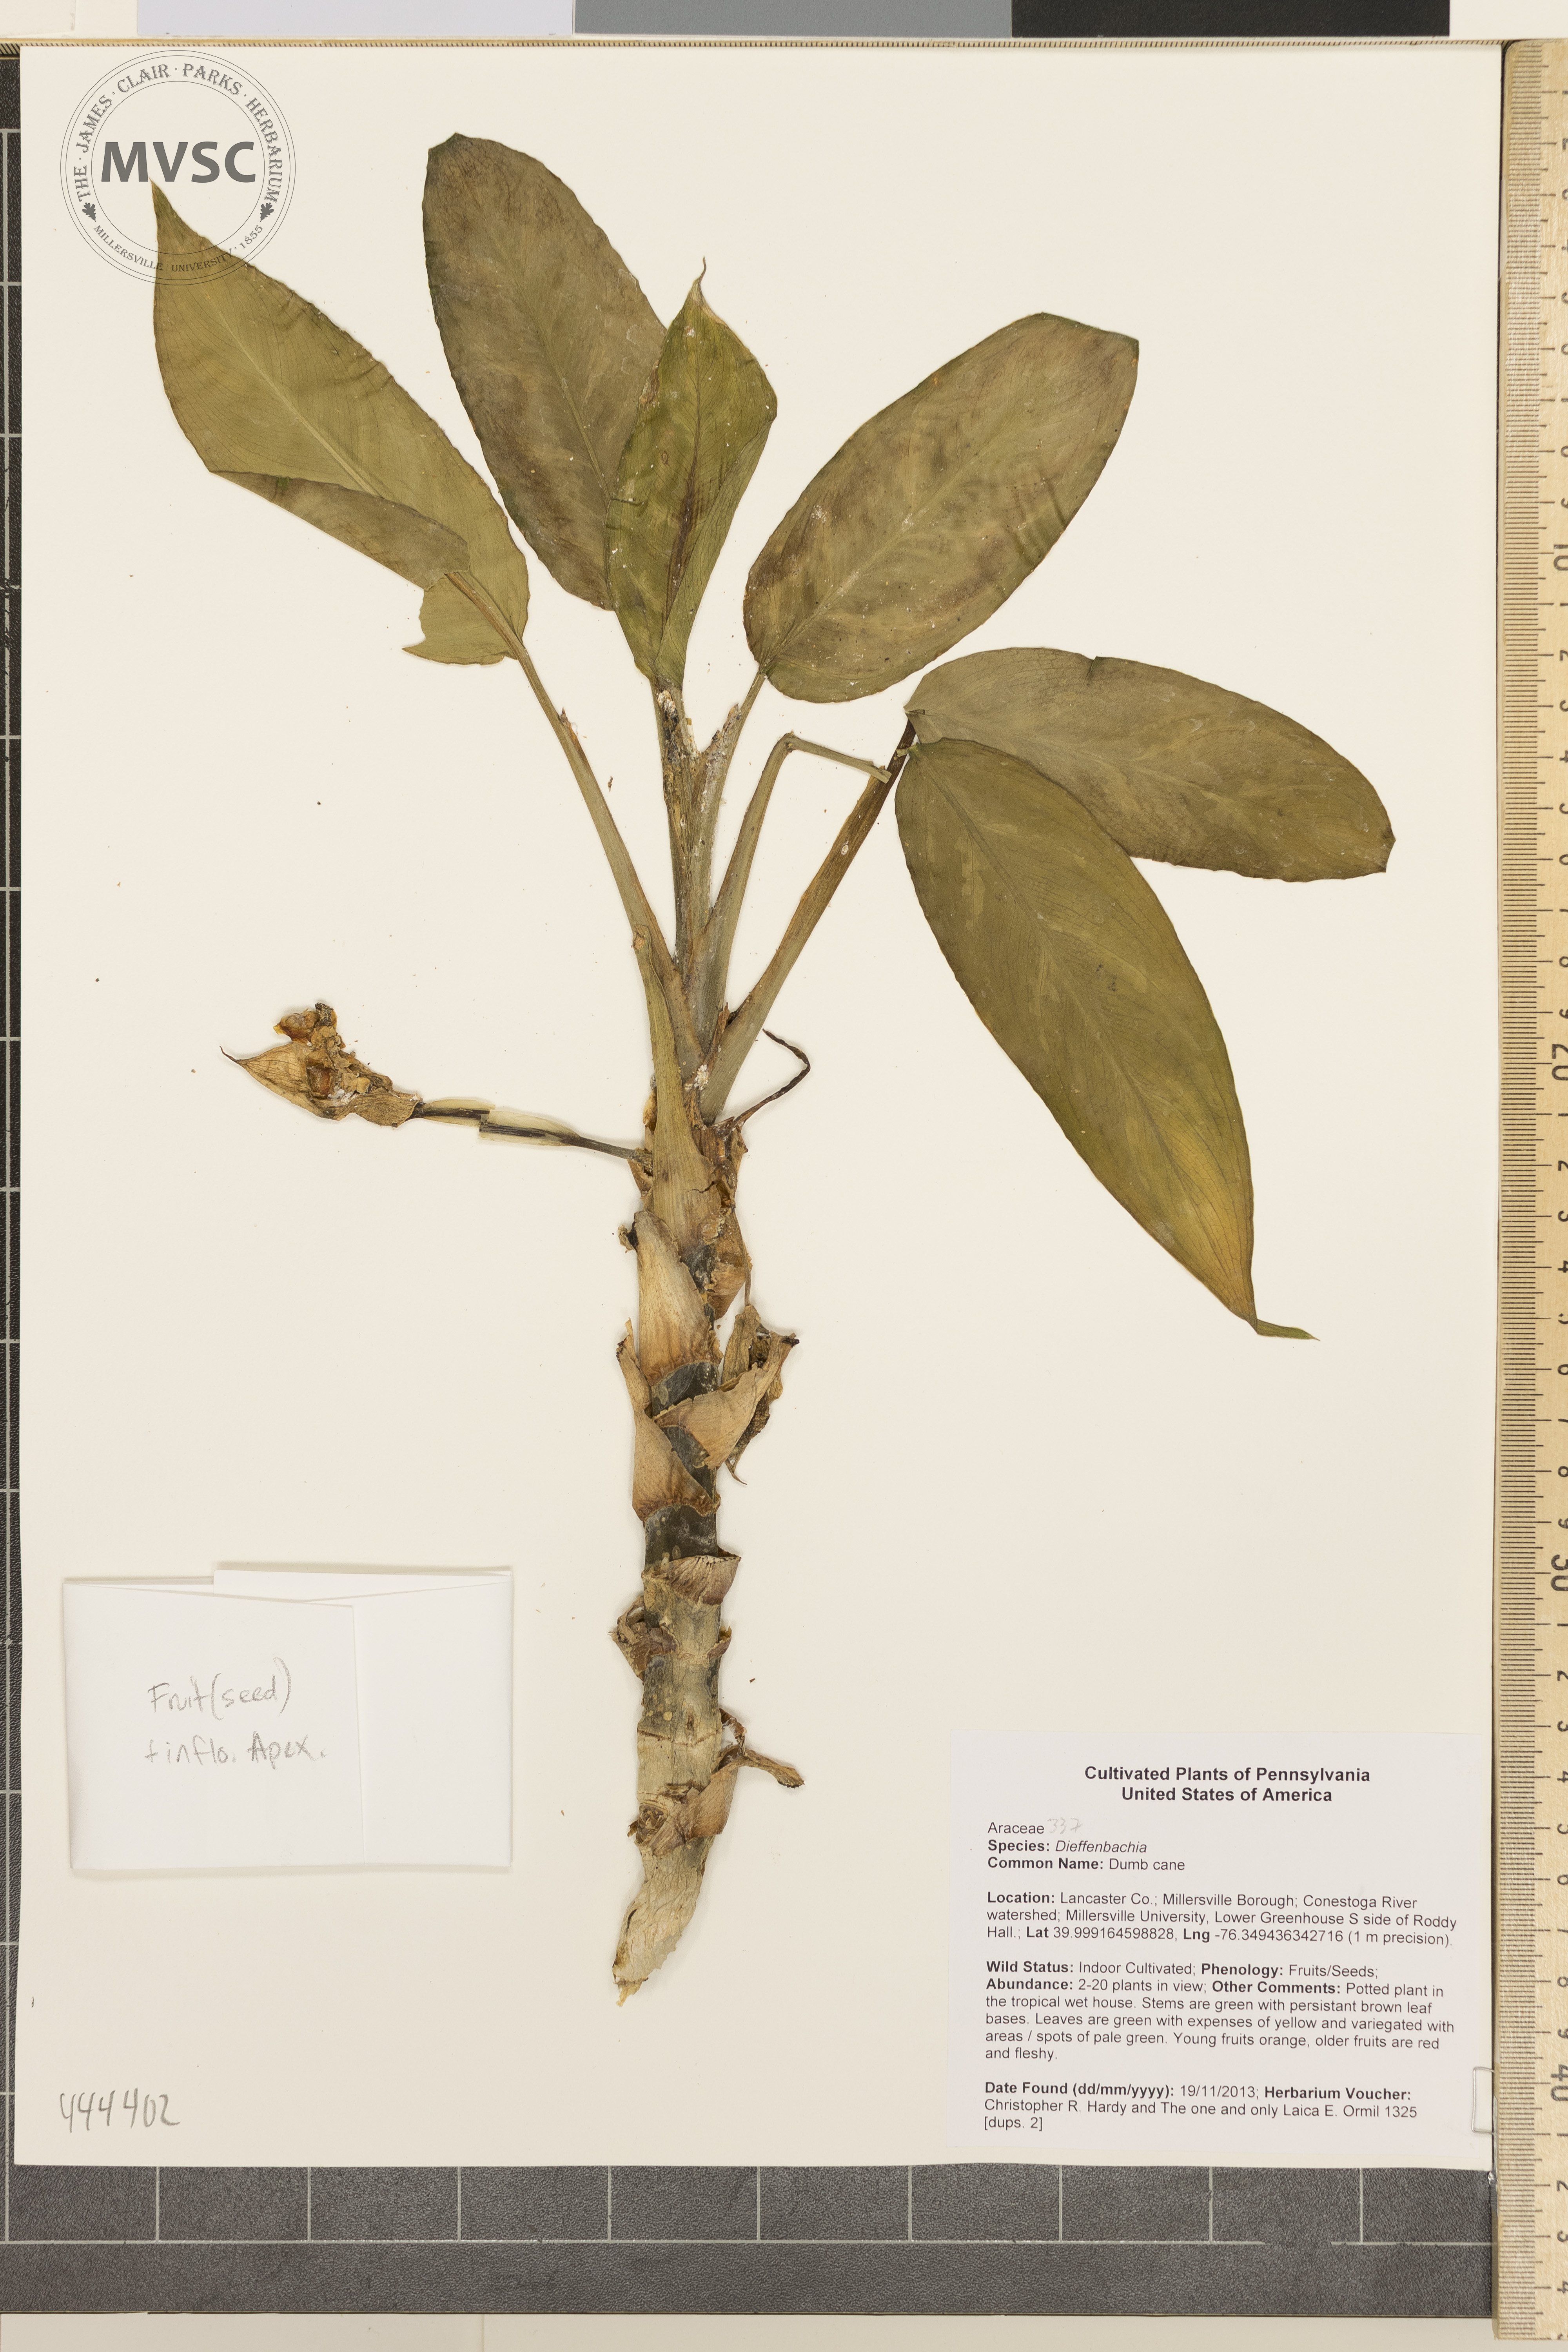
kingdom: Plantae
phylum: Tracheophyta
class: Liliopsida
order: Alismatales
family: Araceae
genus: Dieffenbachia
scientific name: Dieffenbachia
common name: Dumb cane
